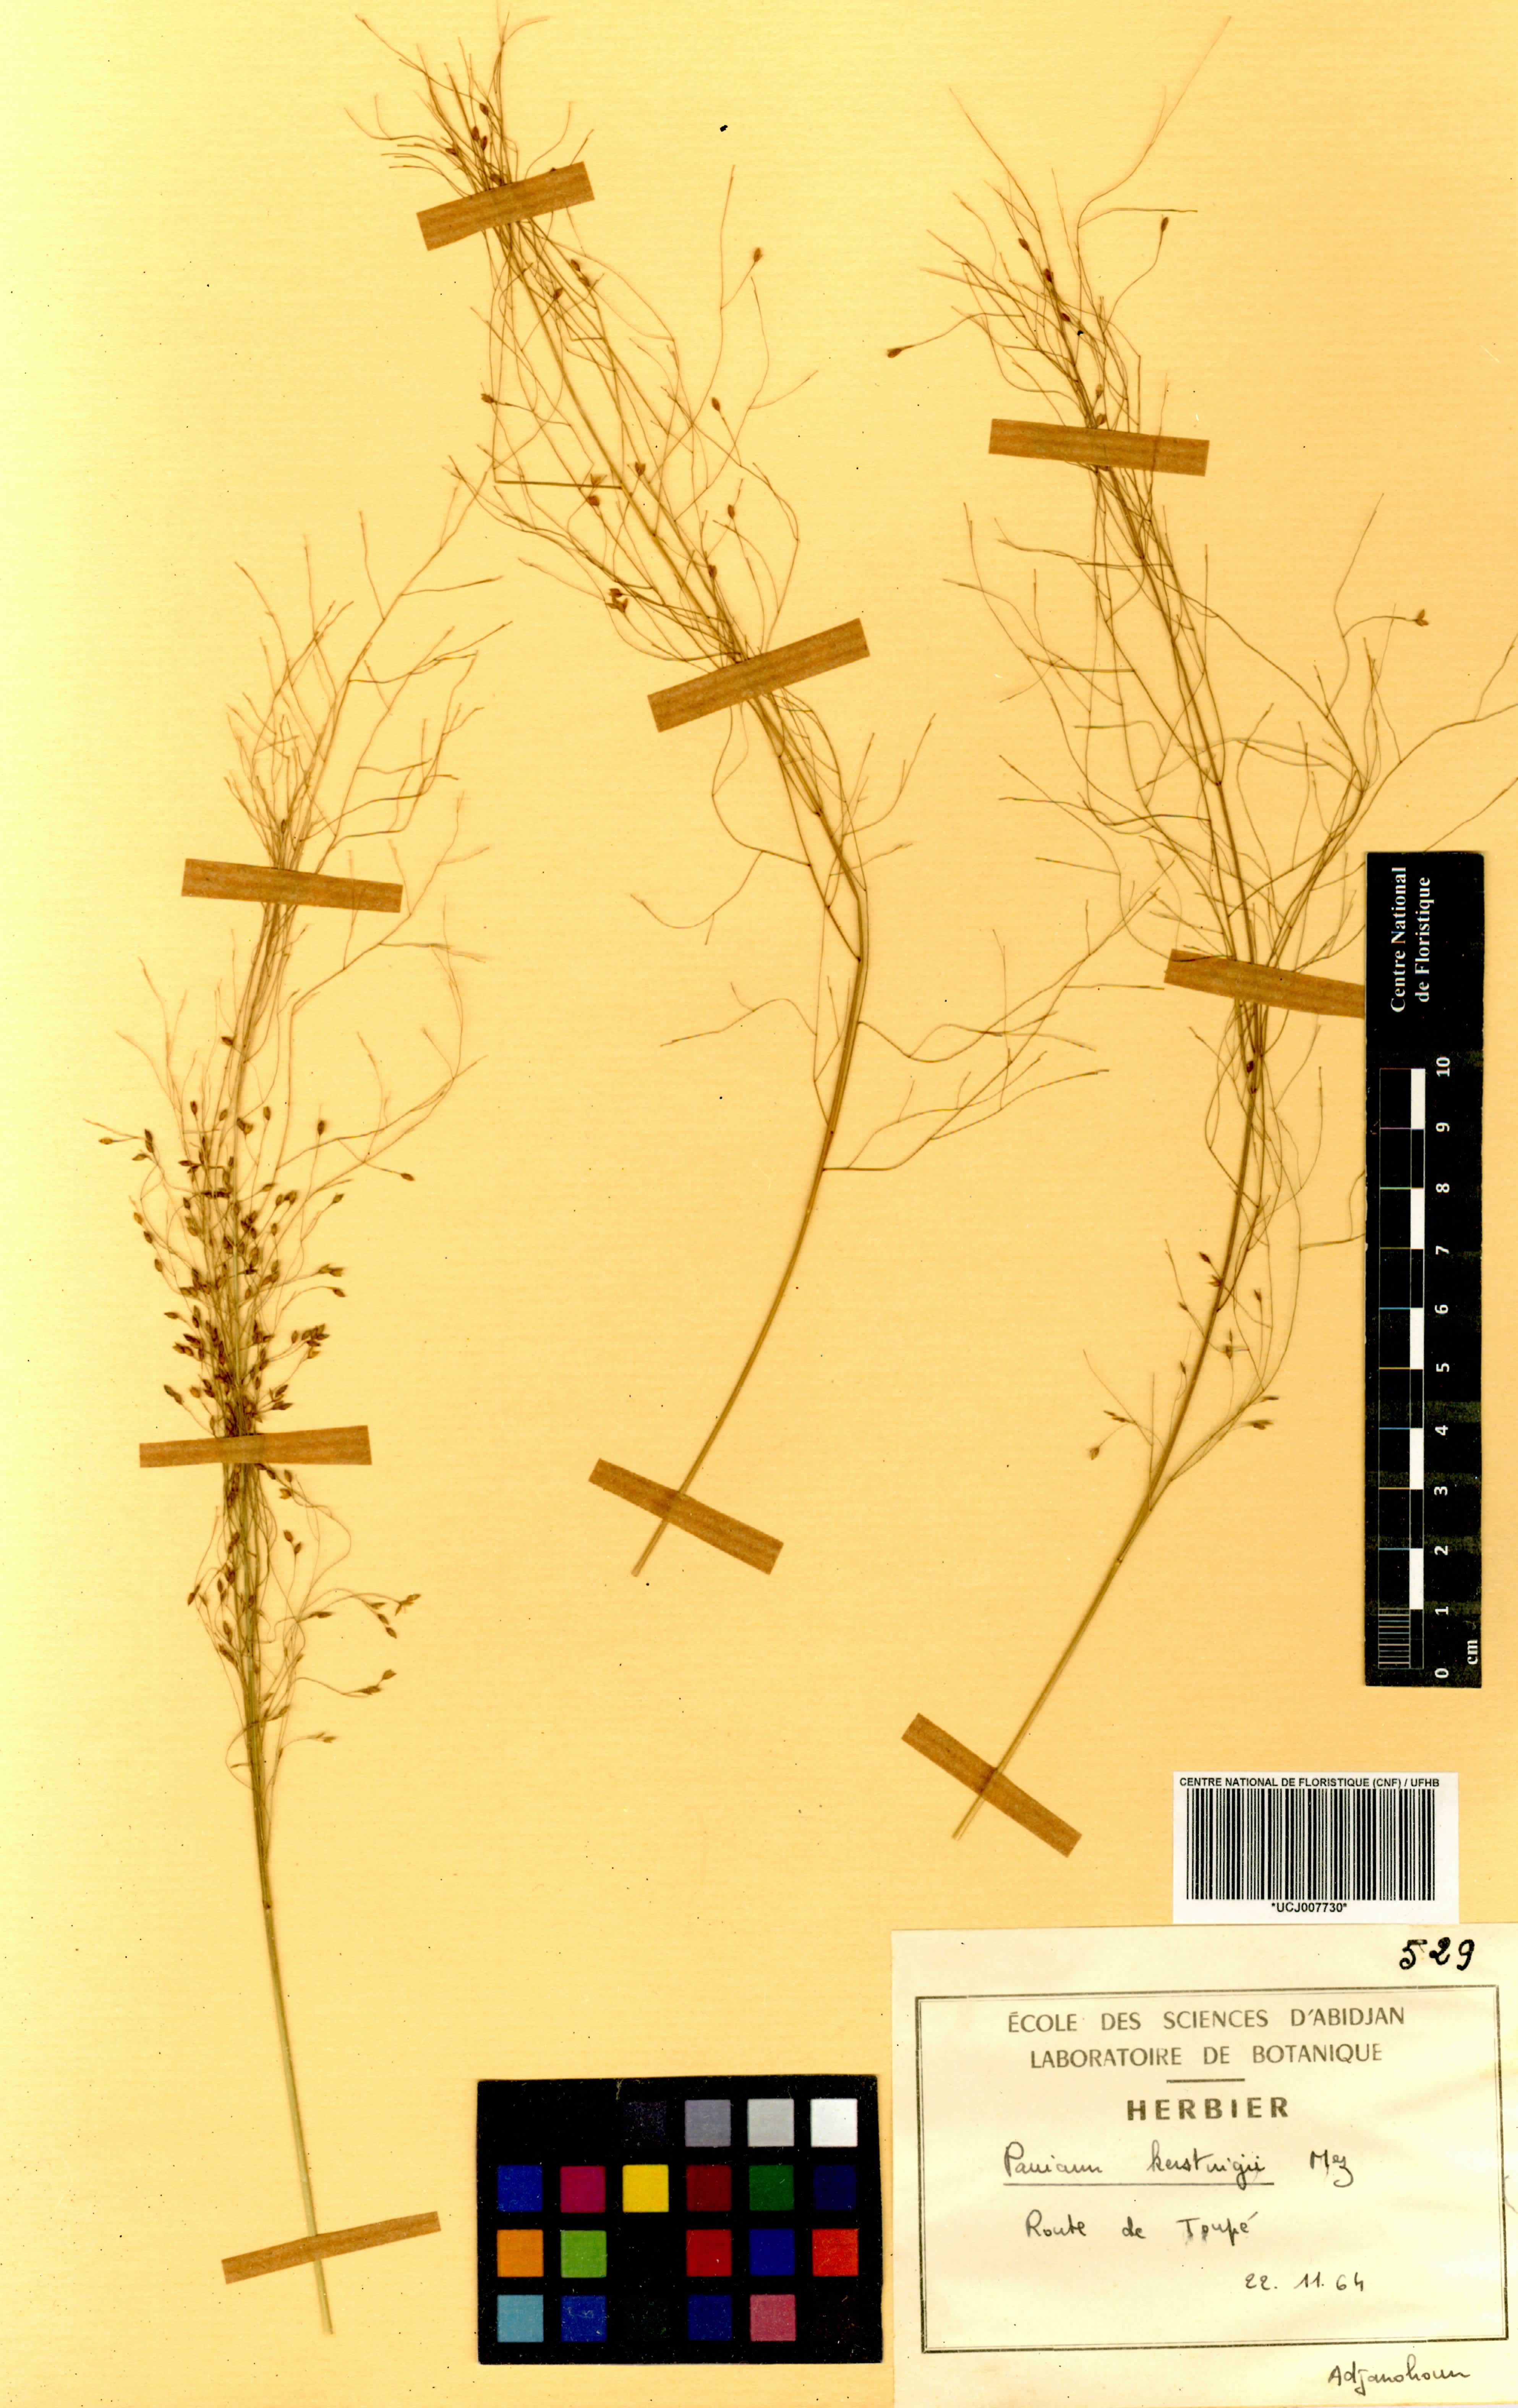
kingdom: Plantae
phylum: Tracheophyta
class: Liliopsida
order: Poales
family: Poaceae
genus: Panicum
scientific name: Panicum pansum
